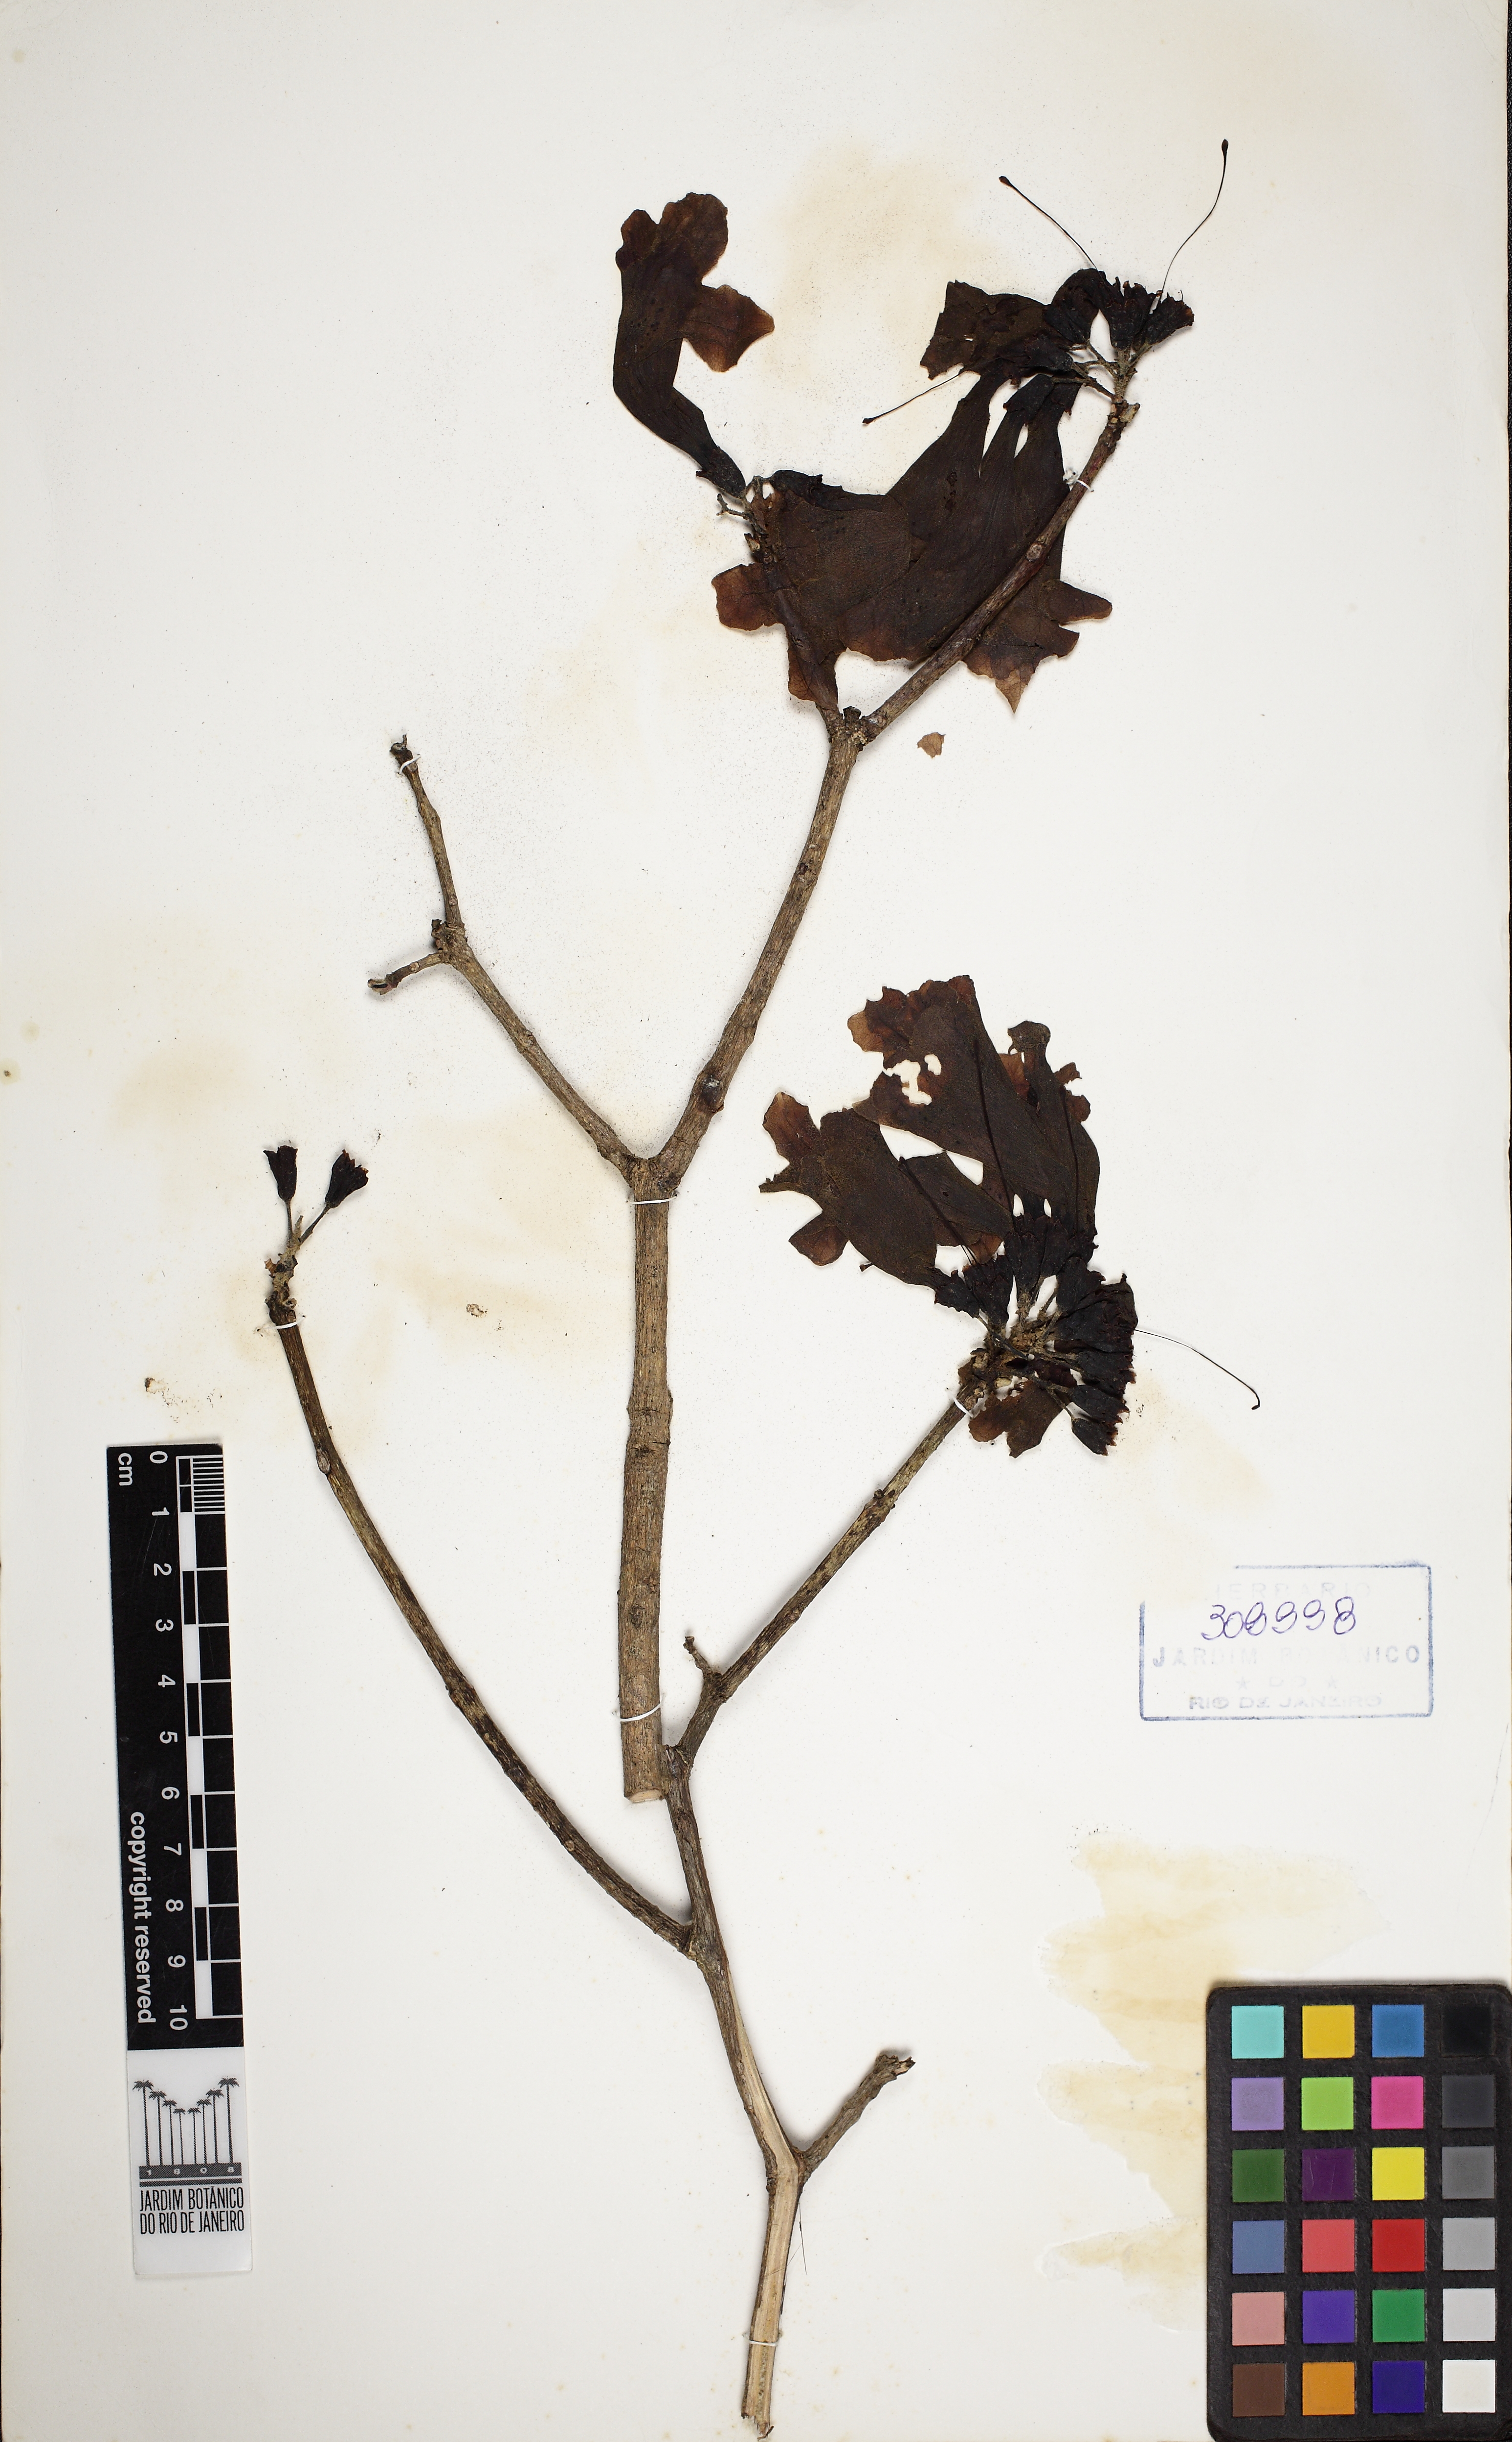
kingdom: Plantae
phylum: Tracheophyta
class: Magnoliopsida
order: Lamiales
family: Bignoniaceae
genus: Handroanthus
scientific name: Handroanthus heptaphyllus
